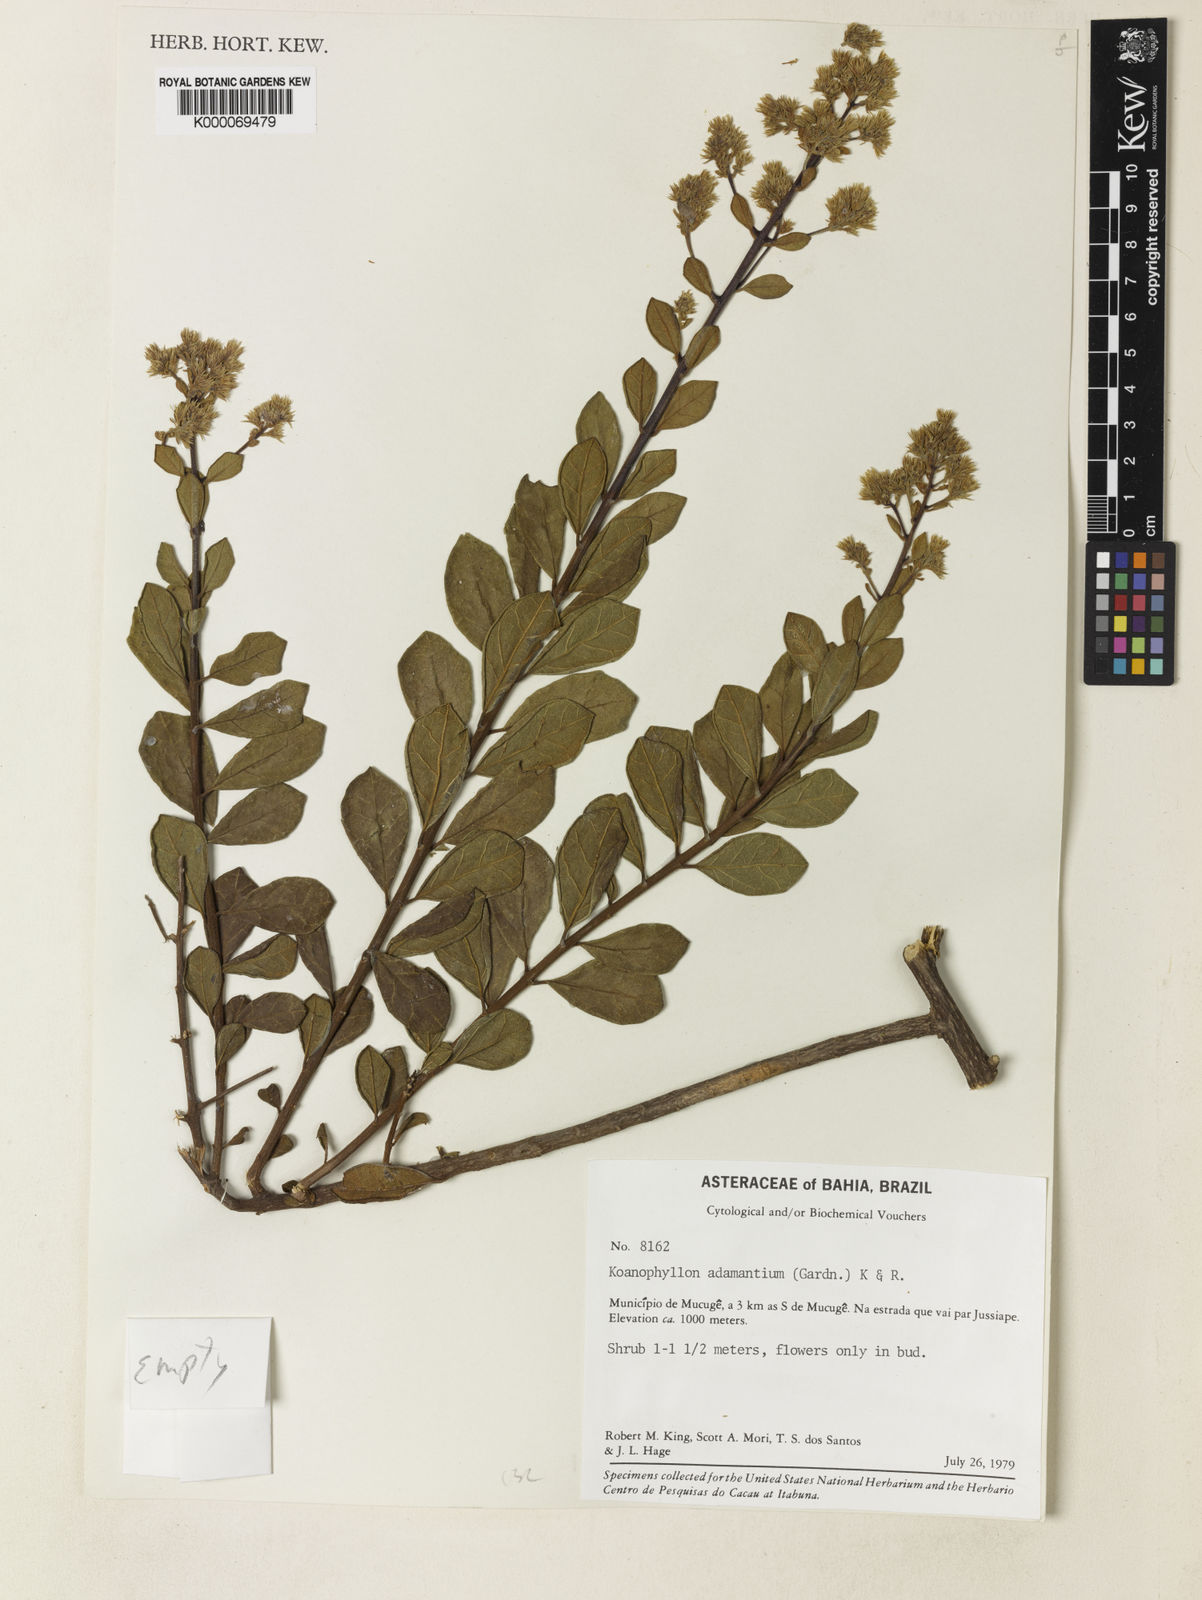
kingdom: Plantae
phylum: Tracheophyta
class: Magnoliopsida
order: Asterales
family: Asteraceae
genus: Koanophyllon
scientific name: Koanophyllon
